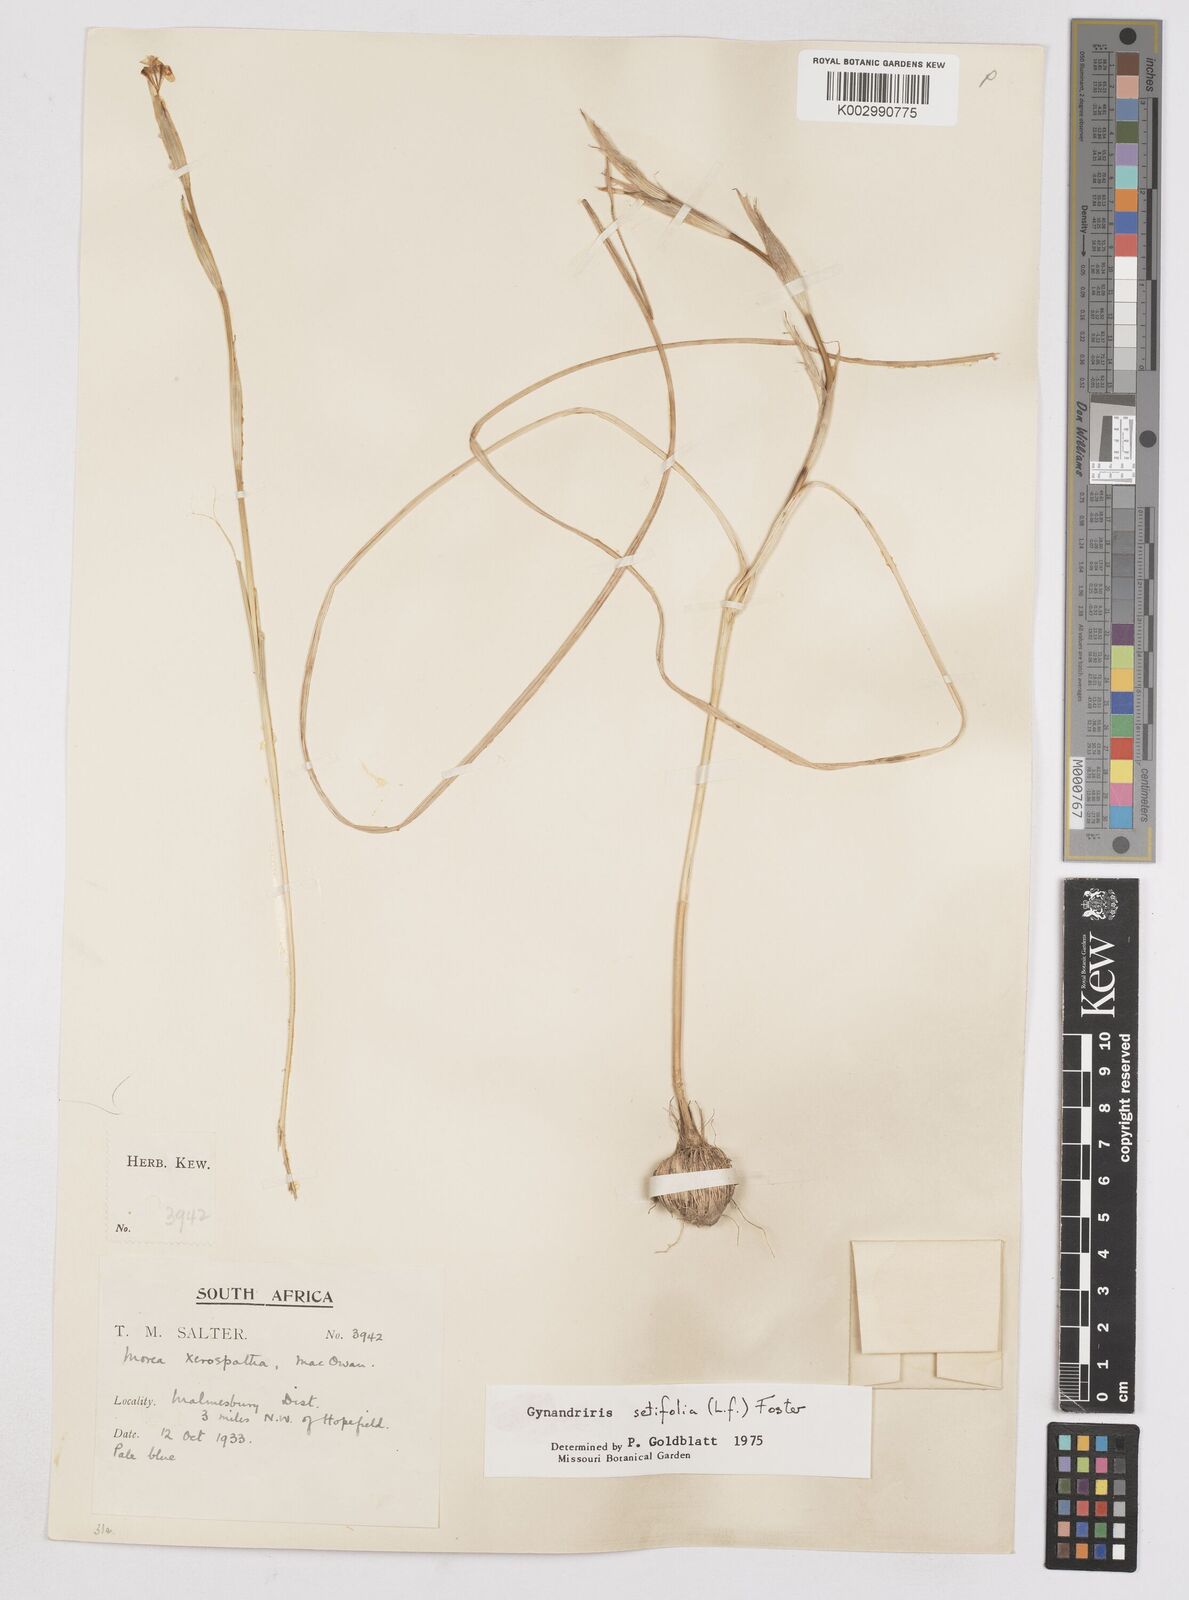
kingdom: Plantae
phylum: Tracheophyta
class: Liliopsida
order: Asparagales
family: Iridaceae
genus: Moraea
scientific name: Moraea setifolia
